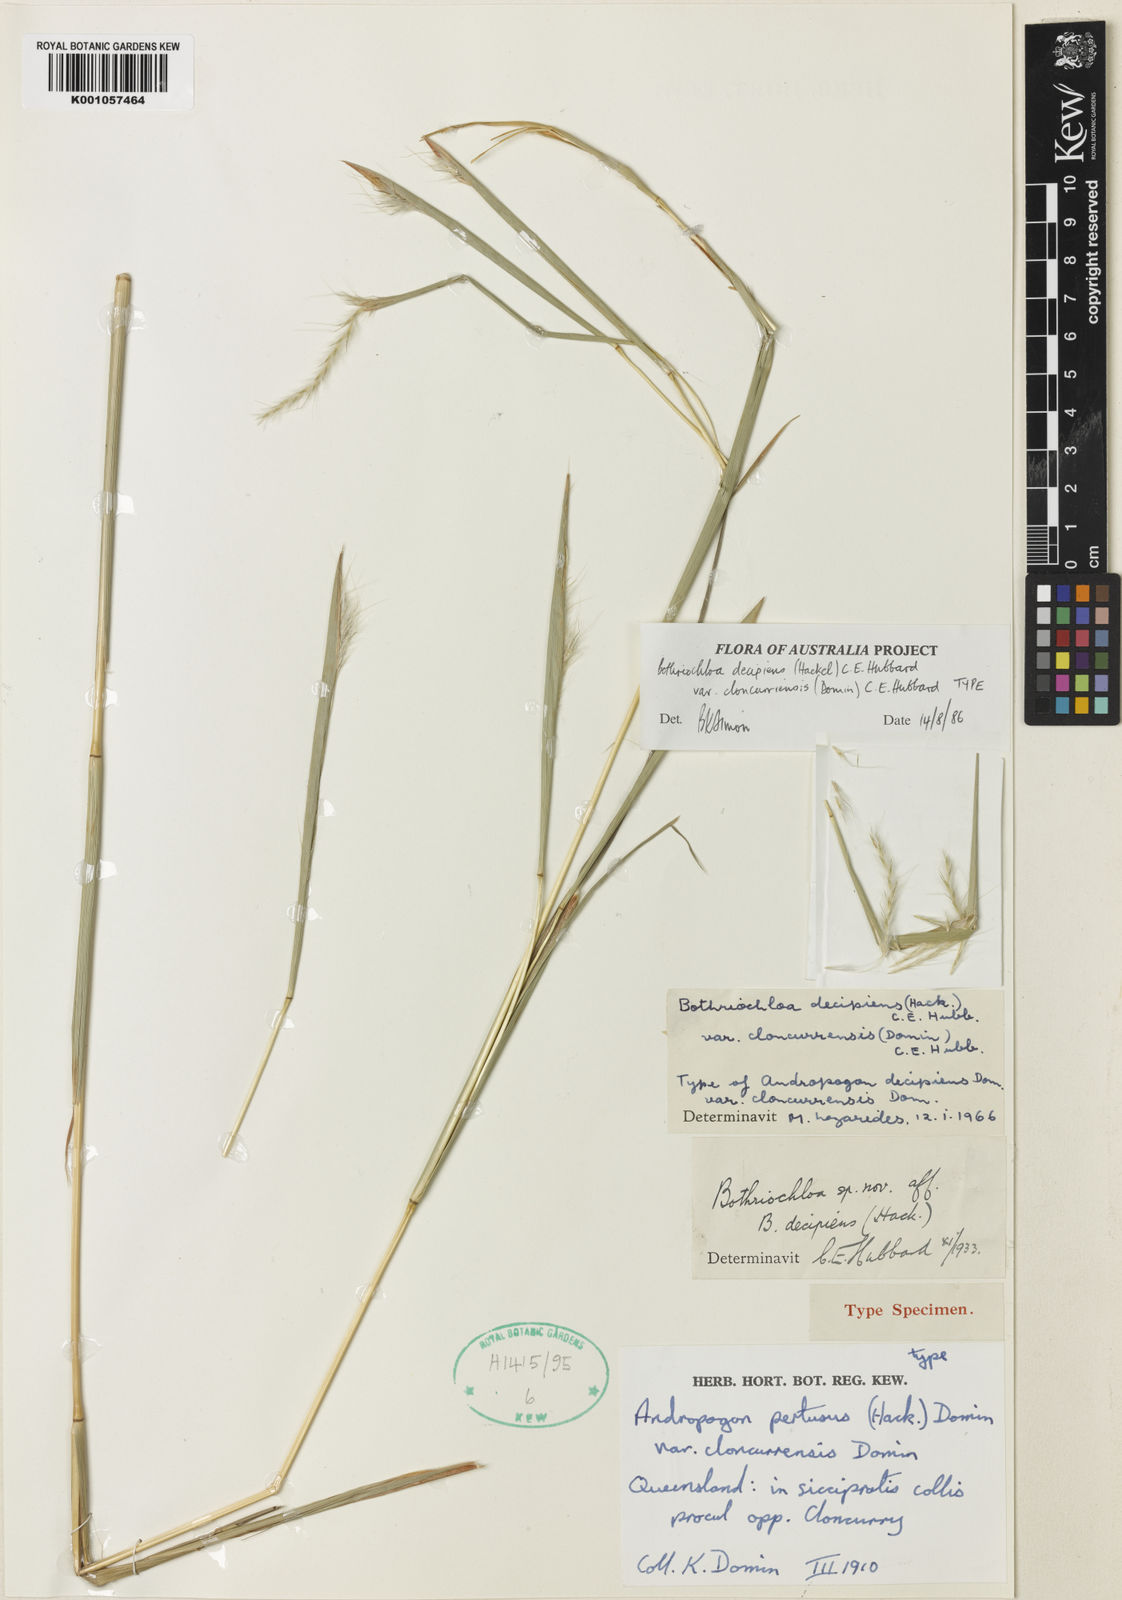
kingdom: Plantae
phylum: Tracheophyta
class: Liliopsida
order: Poales
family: Poaceae
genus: Bothriochloa
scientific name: Bothriochloa decipiens
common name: Pitted-bluegrass
